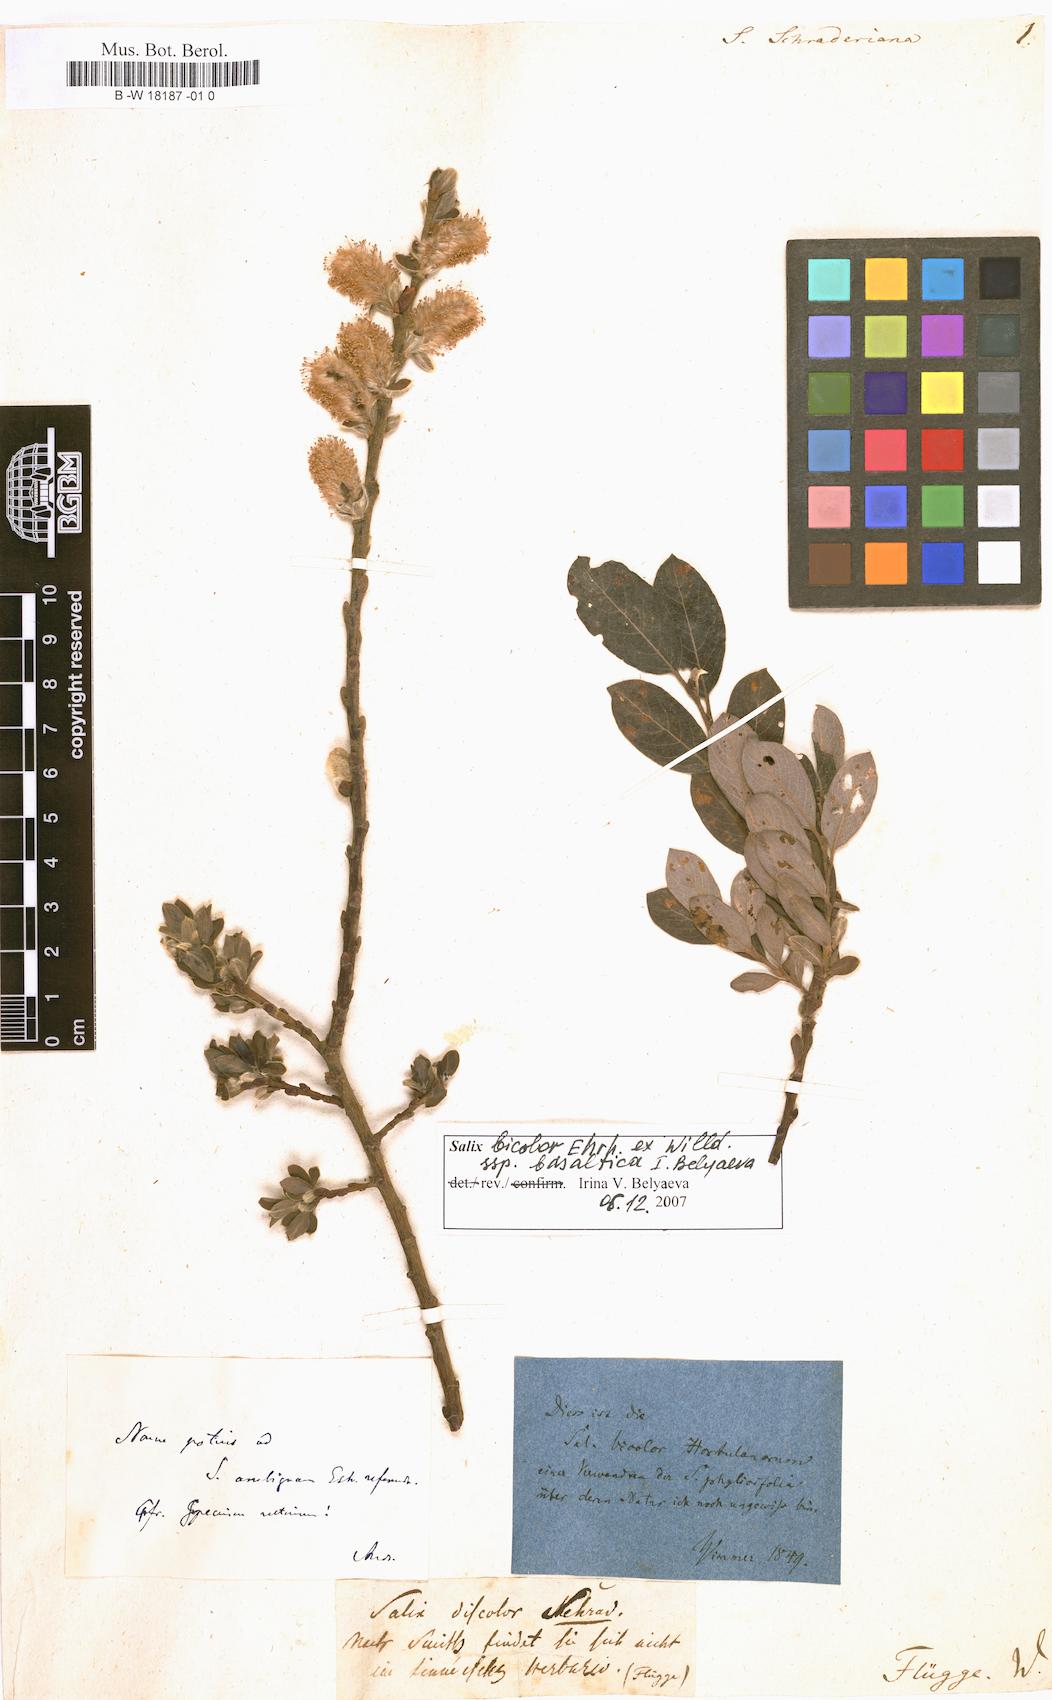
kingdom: Plantae
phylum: Tracheophyta
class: Magnoliopsida
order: Malpighiales
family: Salicaceae
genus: Salix
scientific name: Salix bicolor
